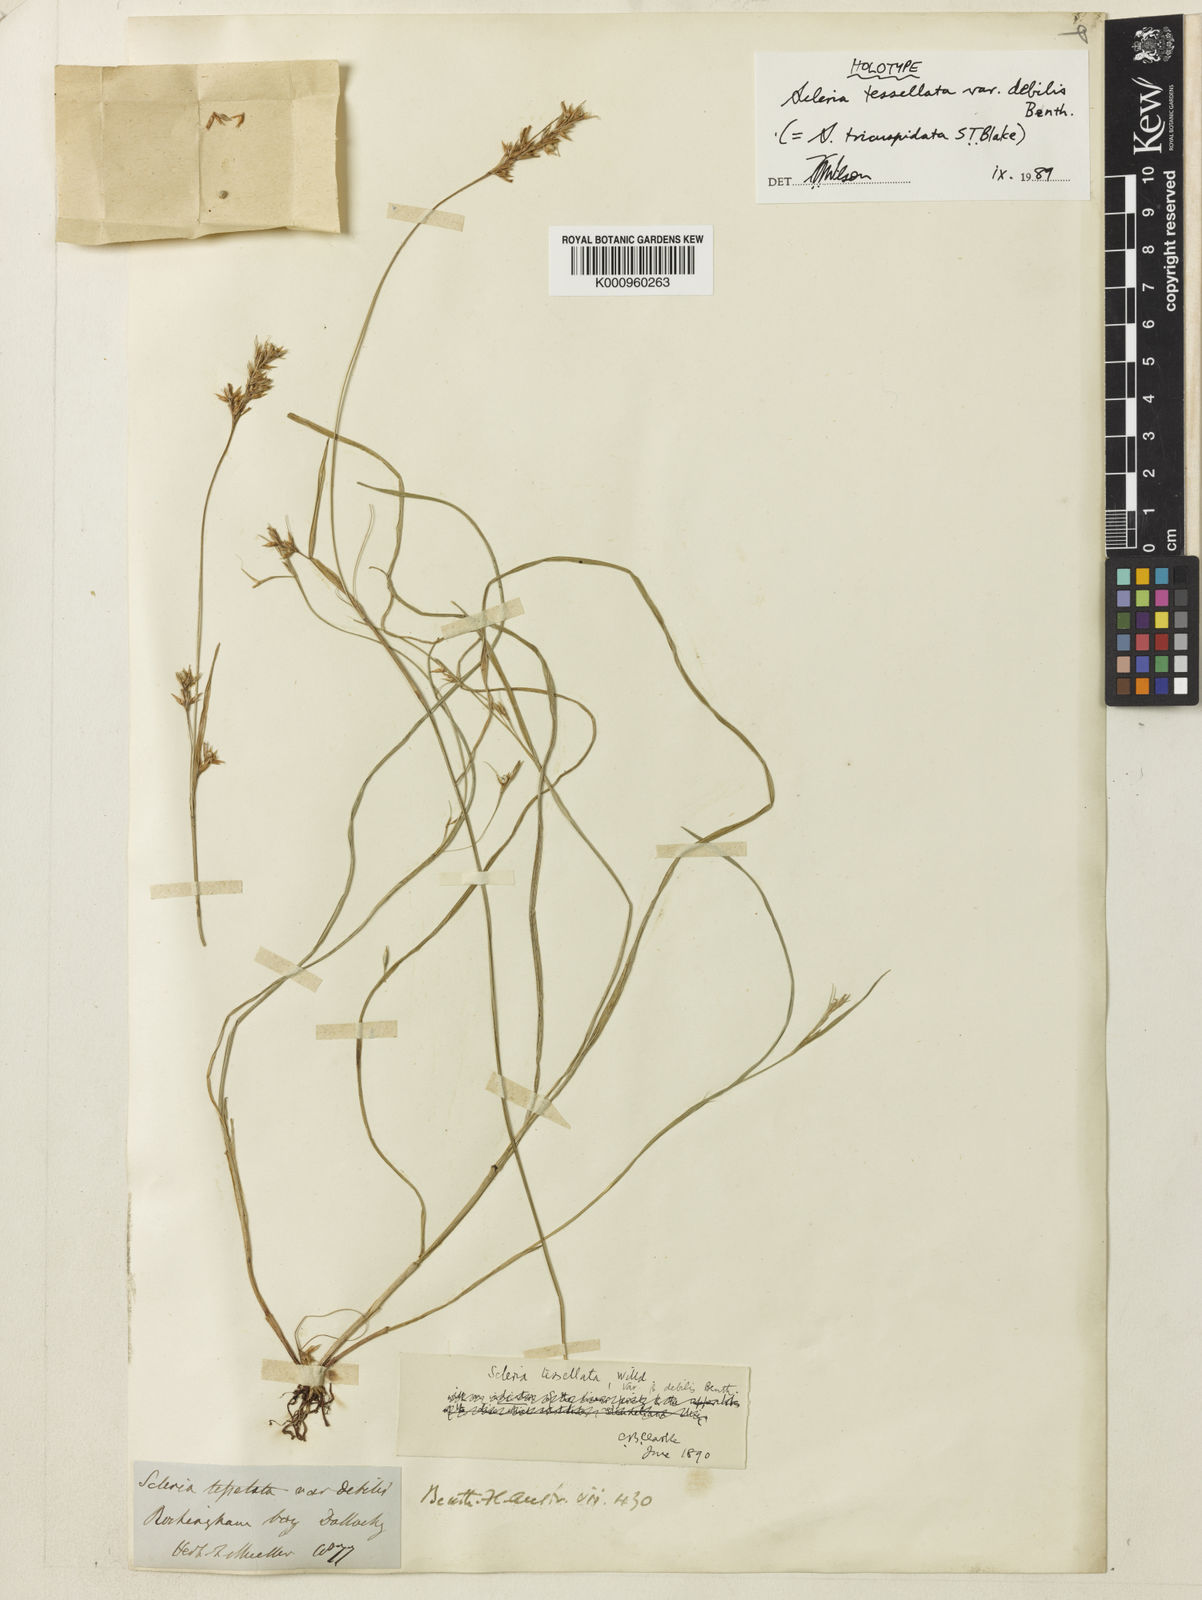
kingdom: Plantae
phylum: Tracheophyta
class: Liliopsida
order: Poales
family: Cyperaceae
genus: Scleria
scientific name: Scleria tricuspidata
